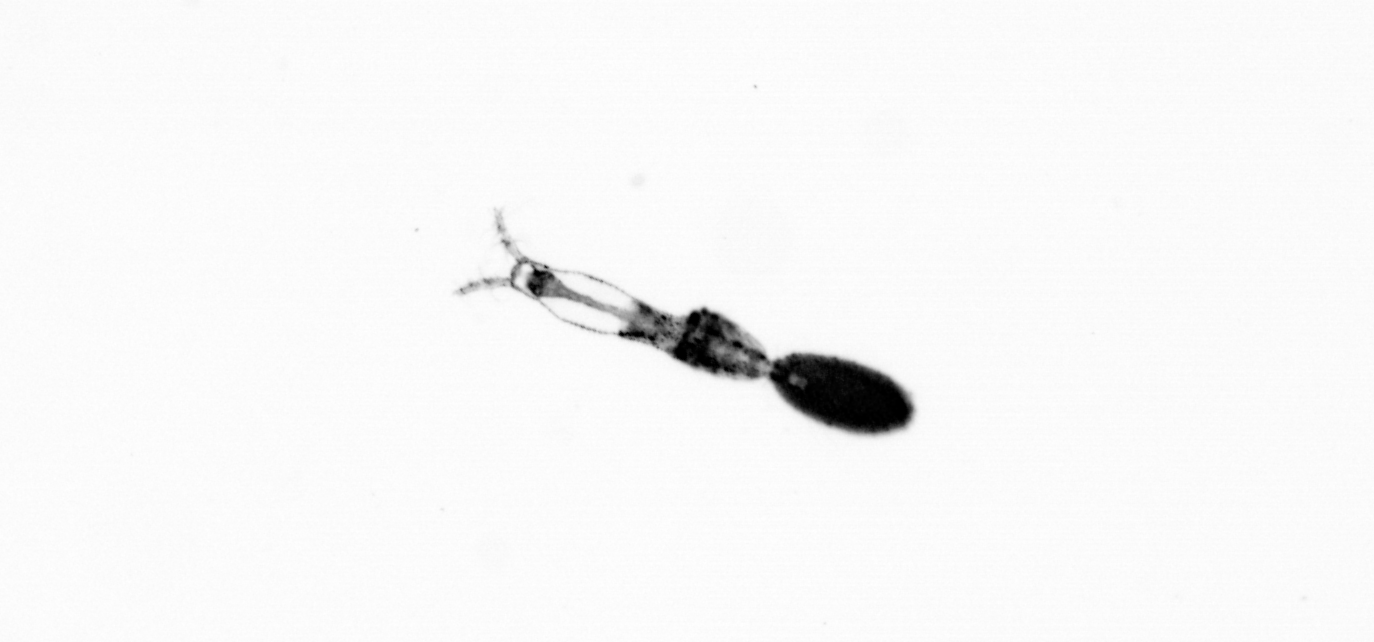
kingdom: Animalia
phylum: Arthropoda
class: Copepoda
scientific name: Copepoda
